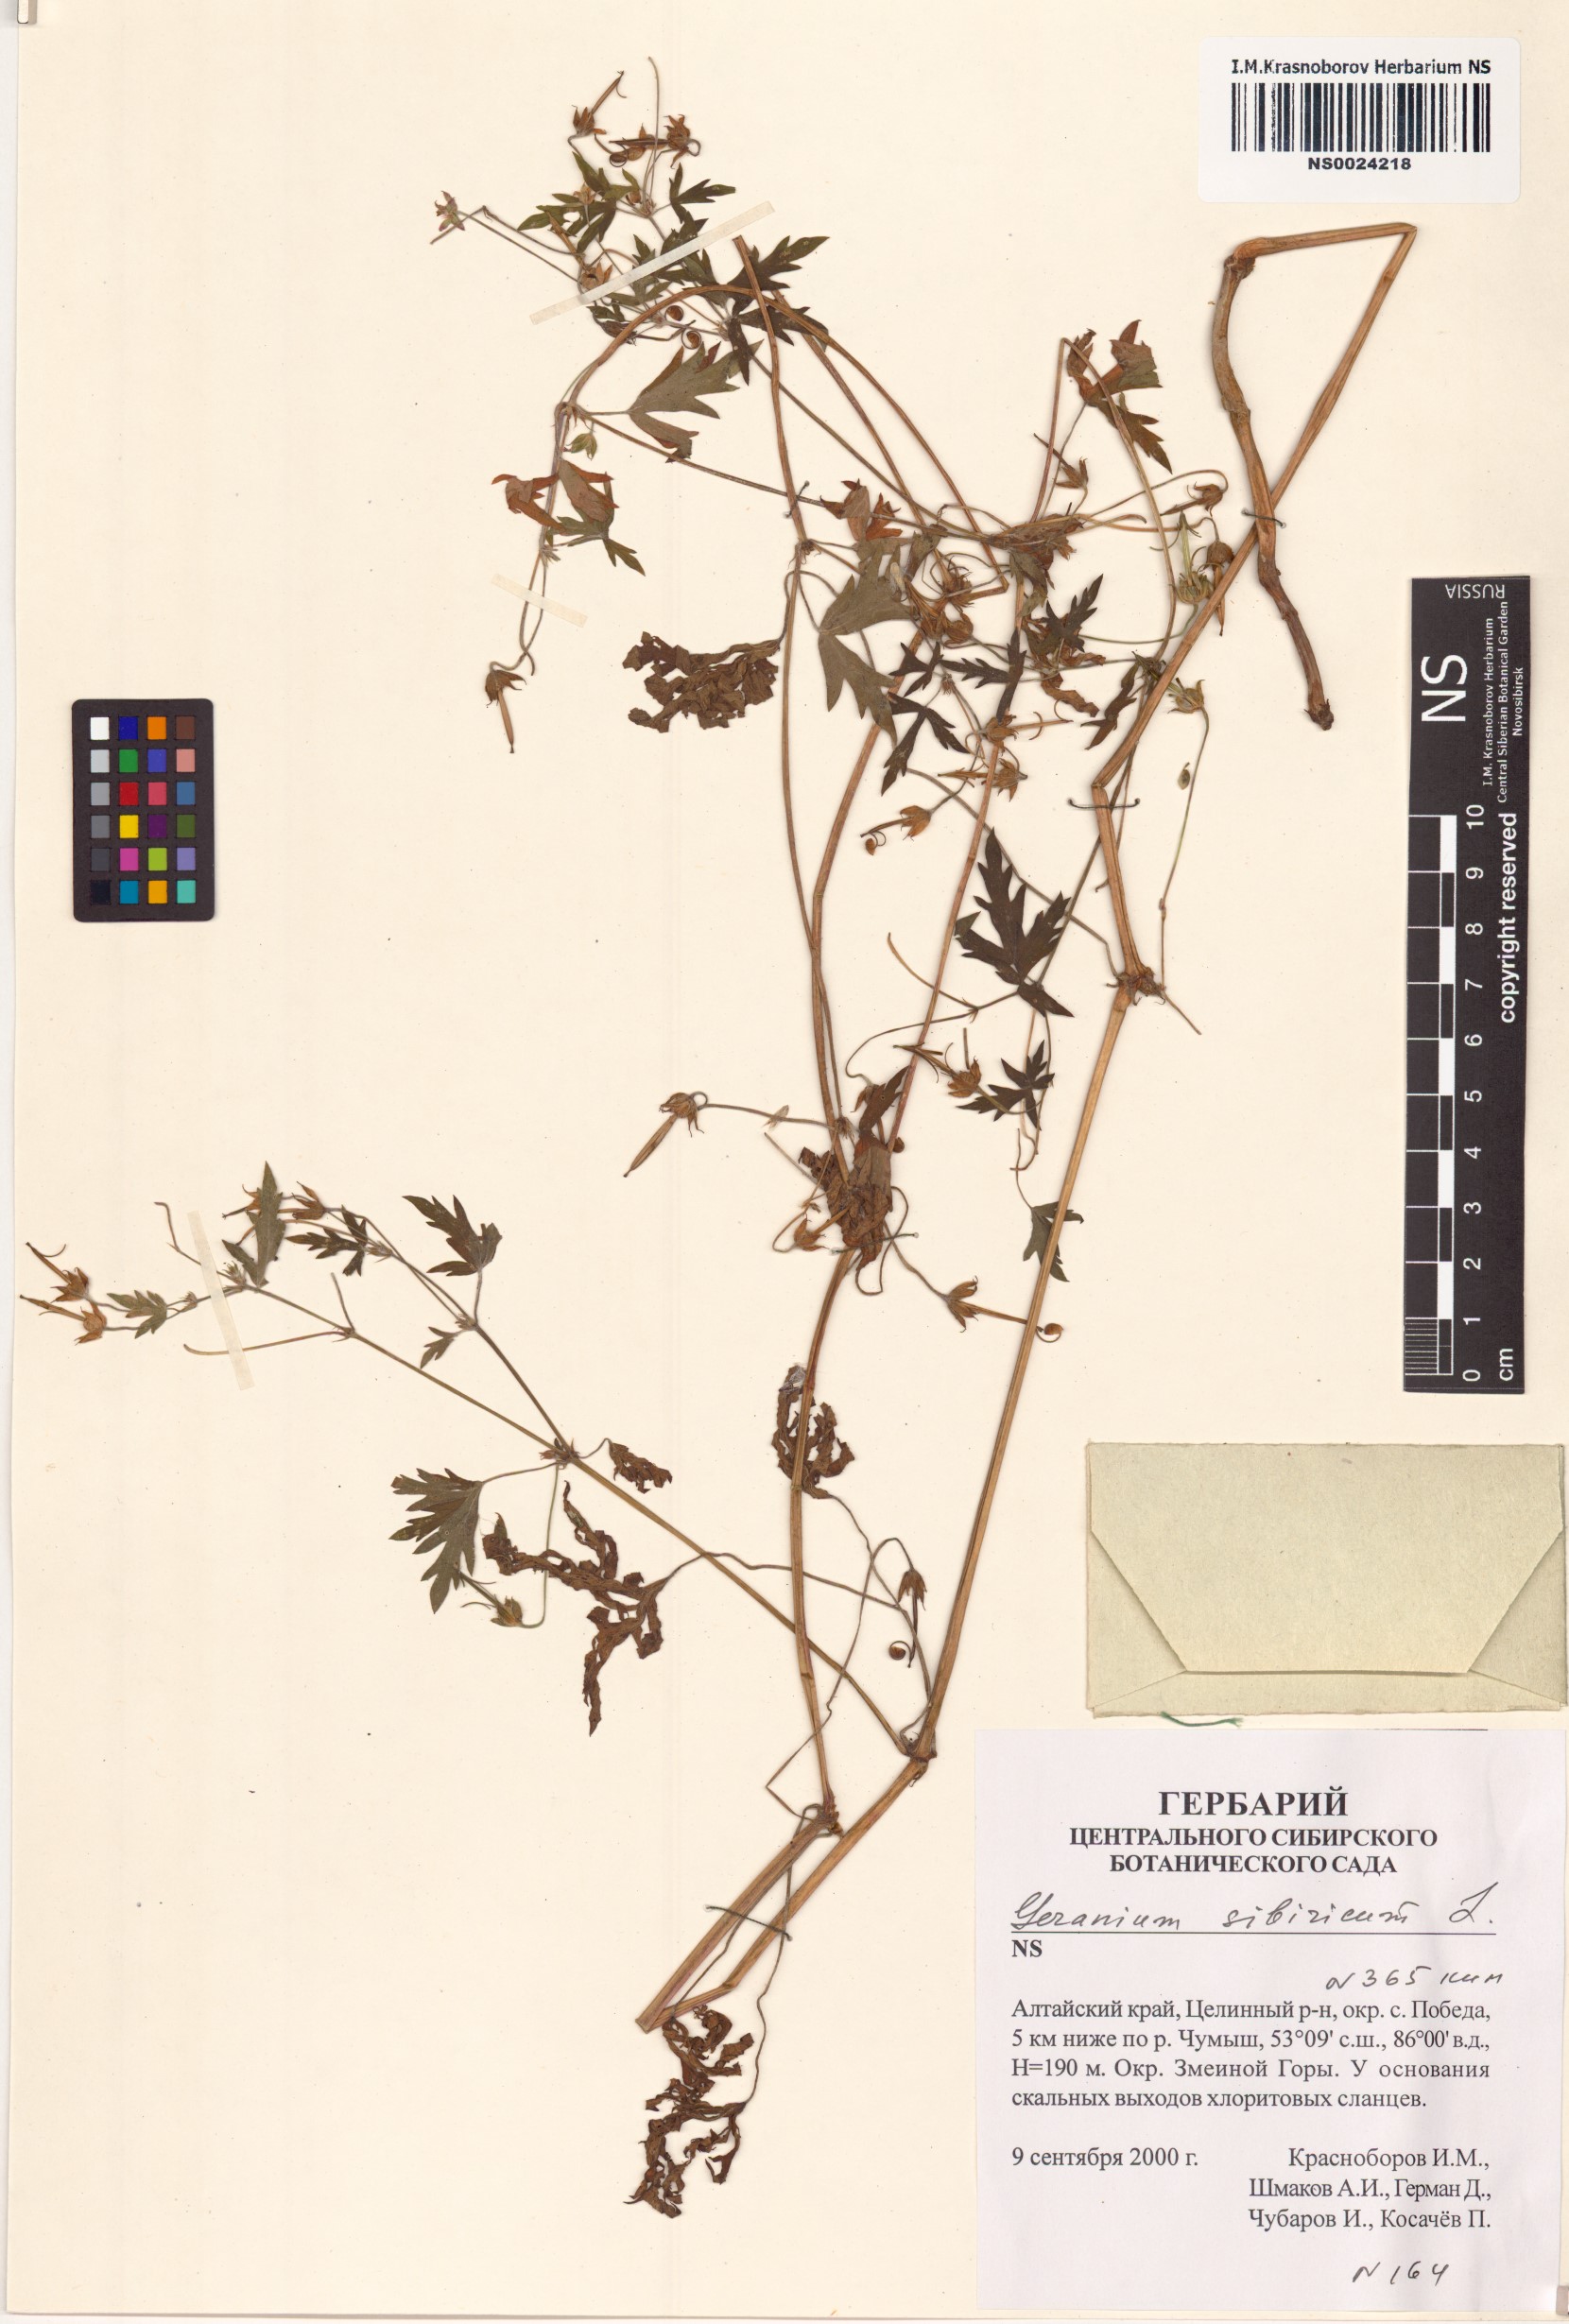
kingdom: Plantae
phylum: Tracheophyta
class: Magnoliopsida
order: Geraniales
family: Geraniaceae
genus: Geranium
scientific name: Geranium sibiricum
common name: Siberian crane's-bill
